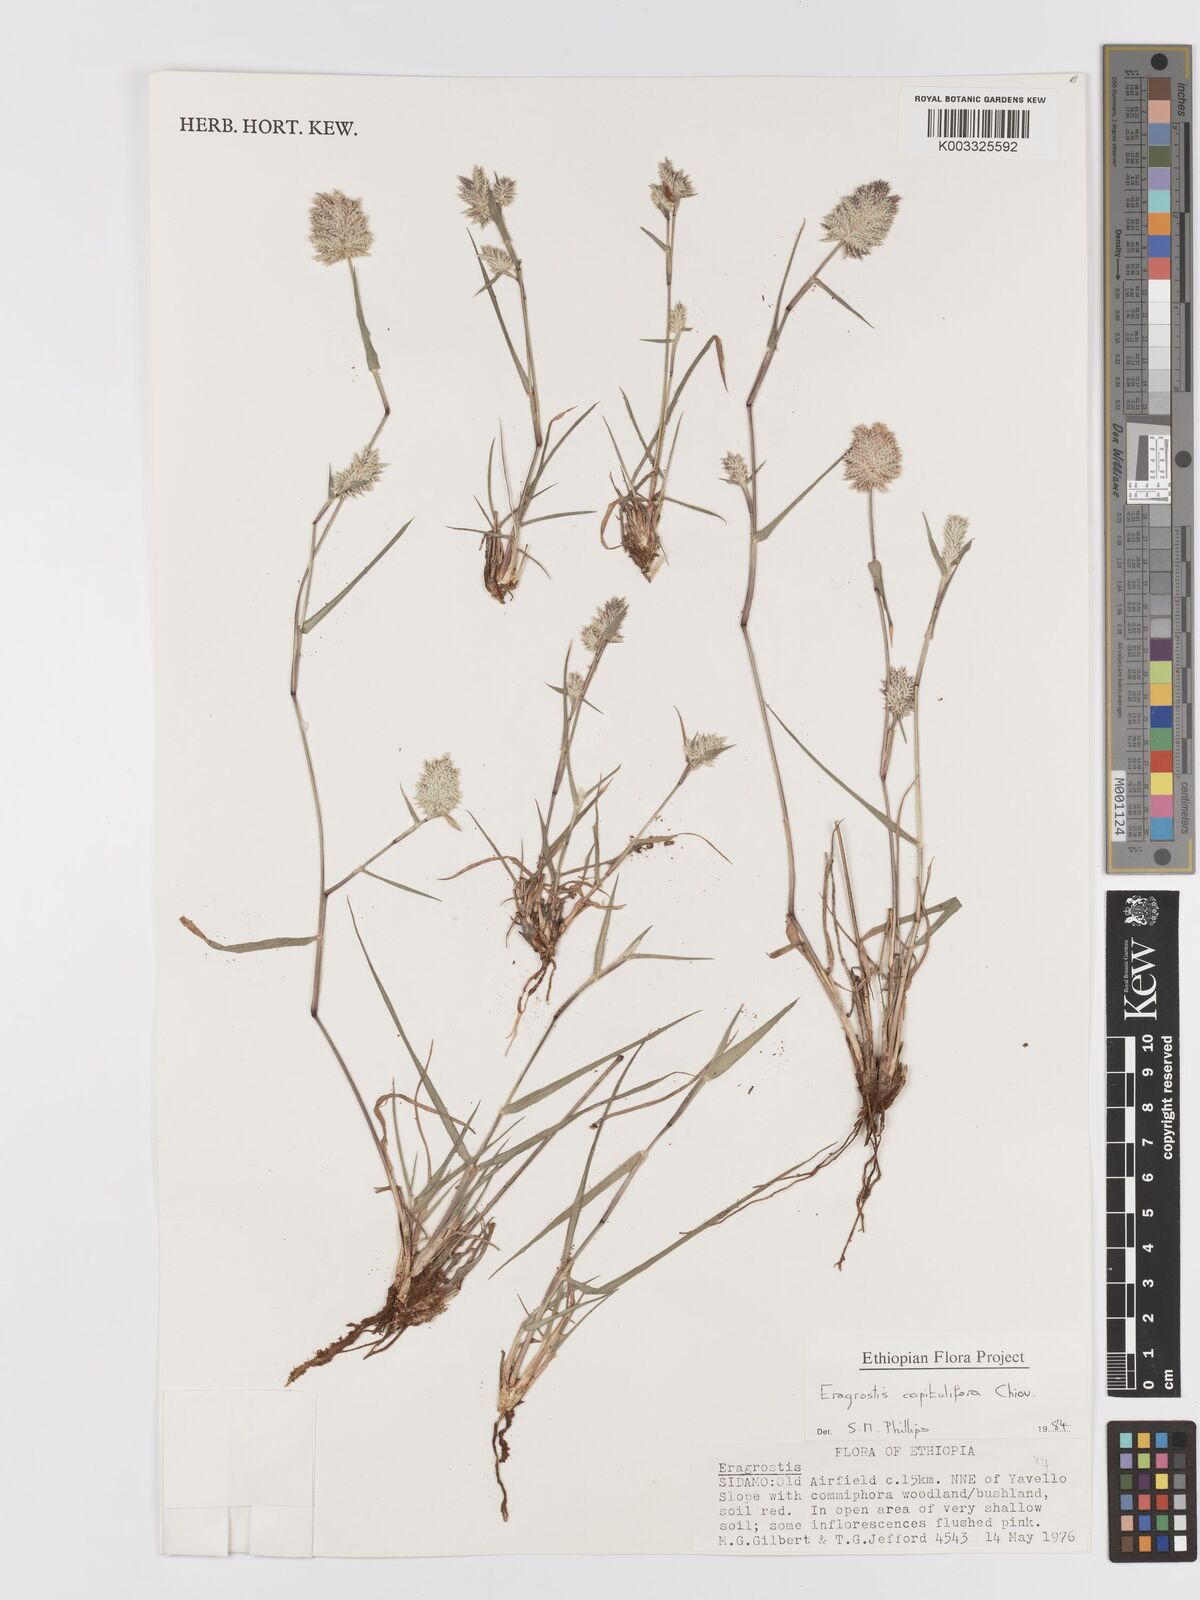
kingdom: Plantae
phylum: Tracheophyta
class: Liliopsida
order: Poales
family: Poaceae
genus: Eragrostis
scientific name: Eragrostis capitulifera
